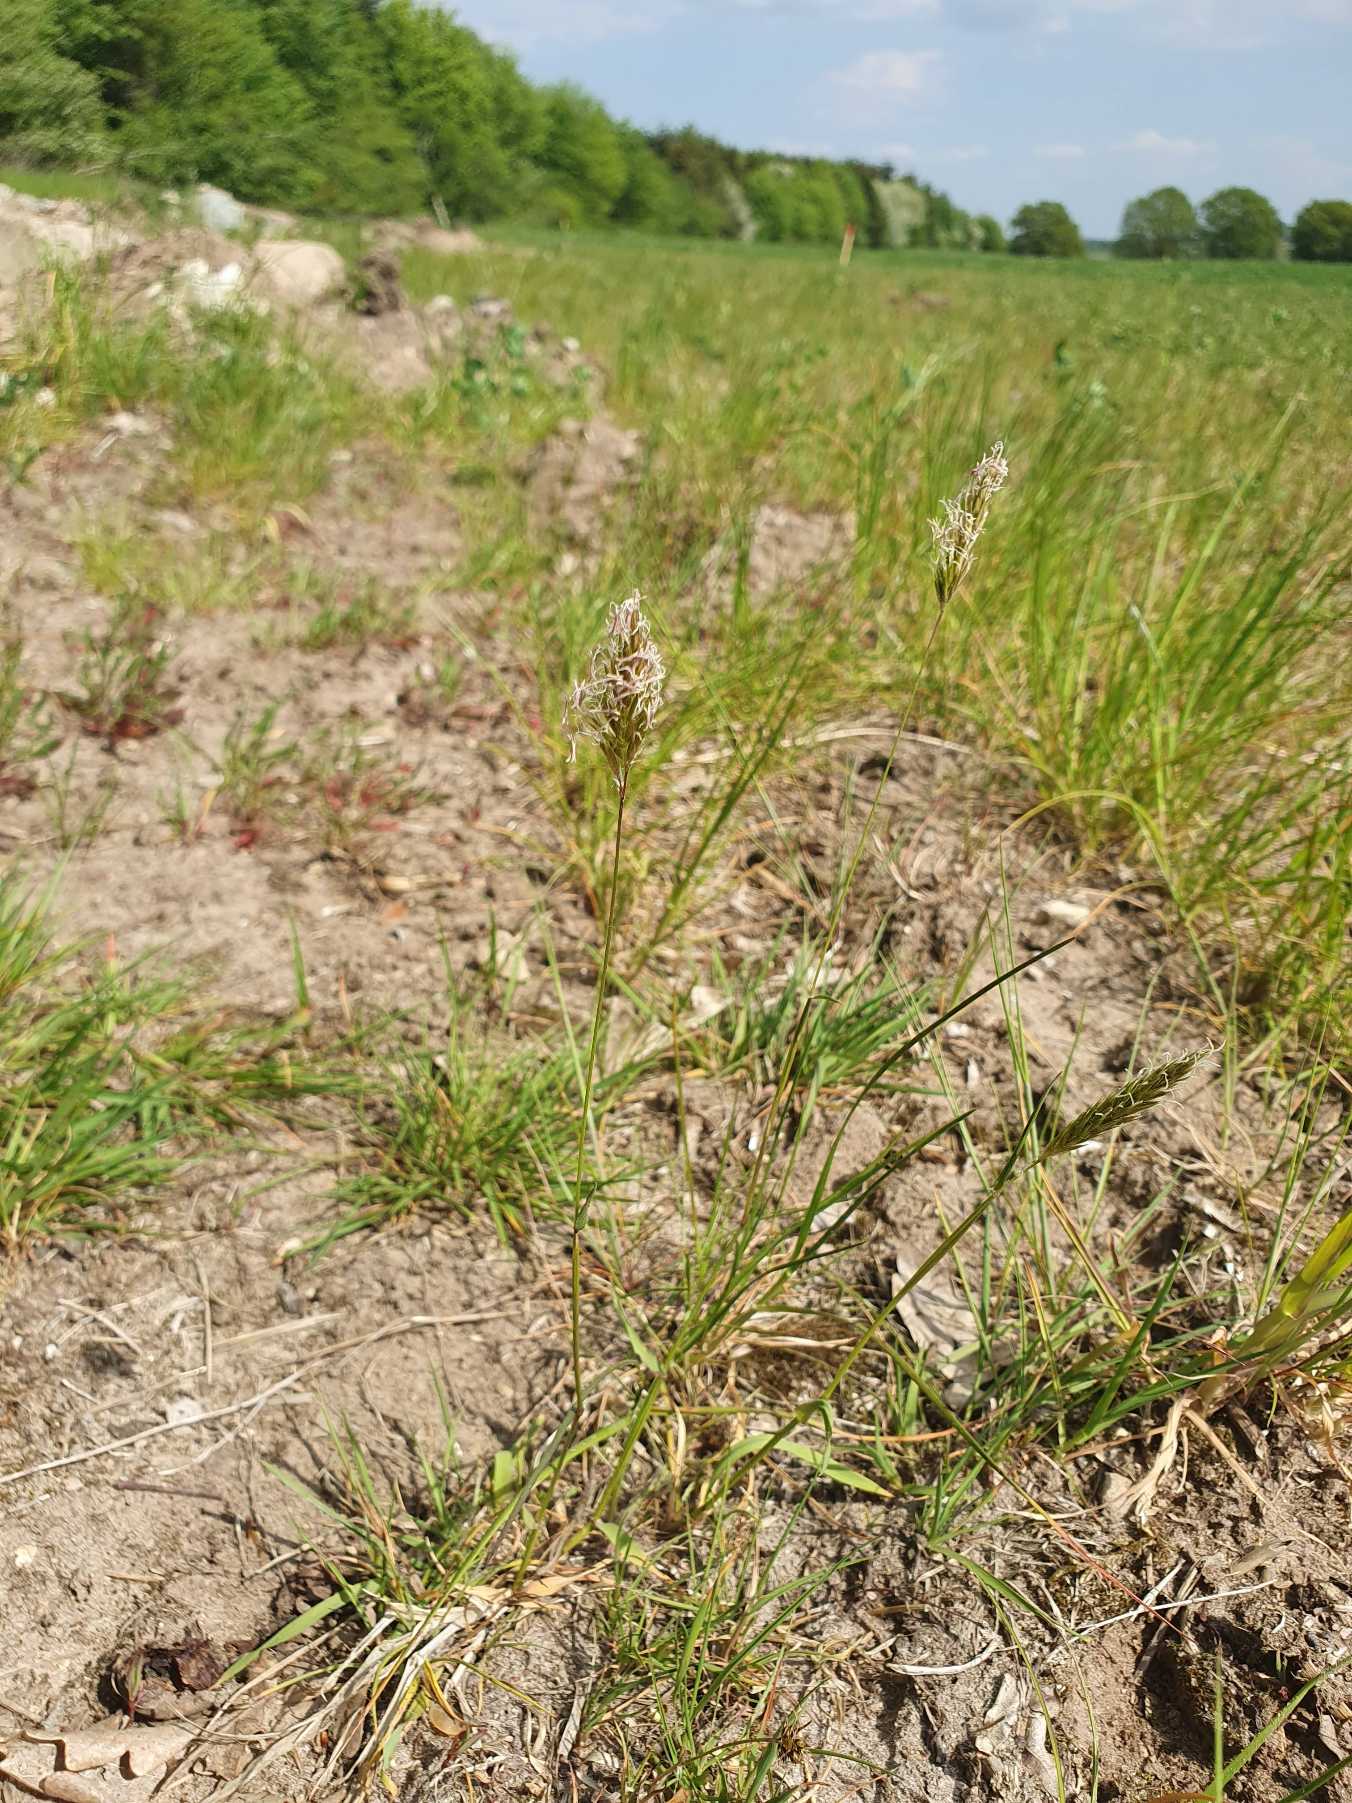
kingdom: Plantae
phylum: Tracheophyta
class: Liliopsida
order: Poales
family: Poaceae
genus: Anthoxanthum
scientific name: Anthoxanthum odoratum
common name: Vellugtende gulaks
